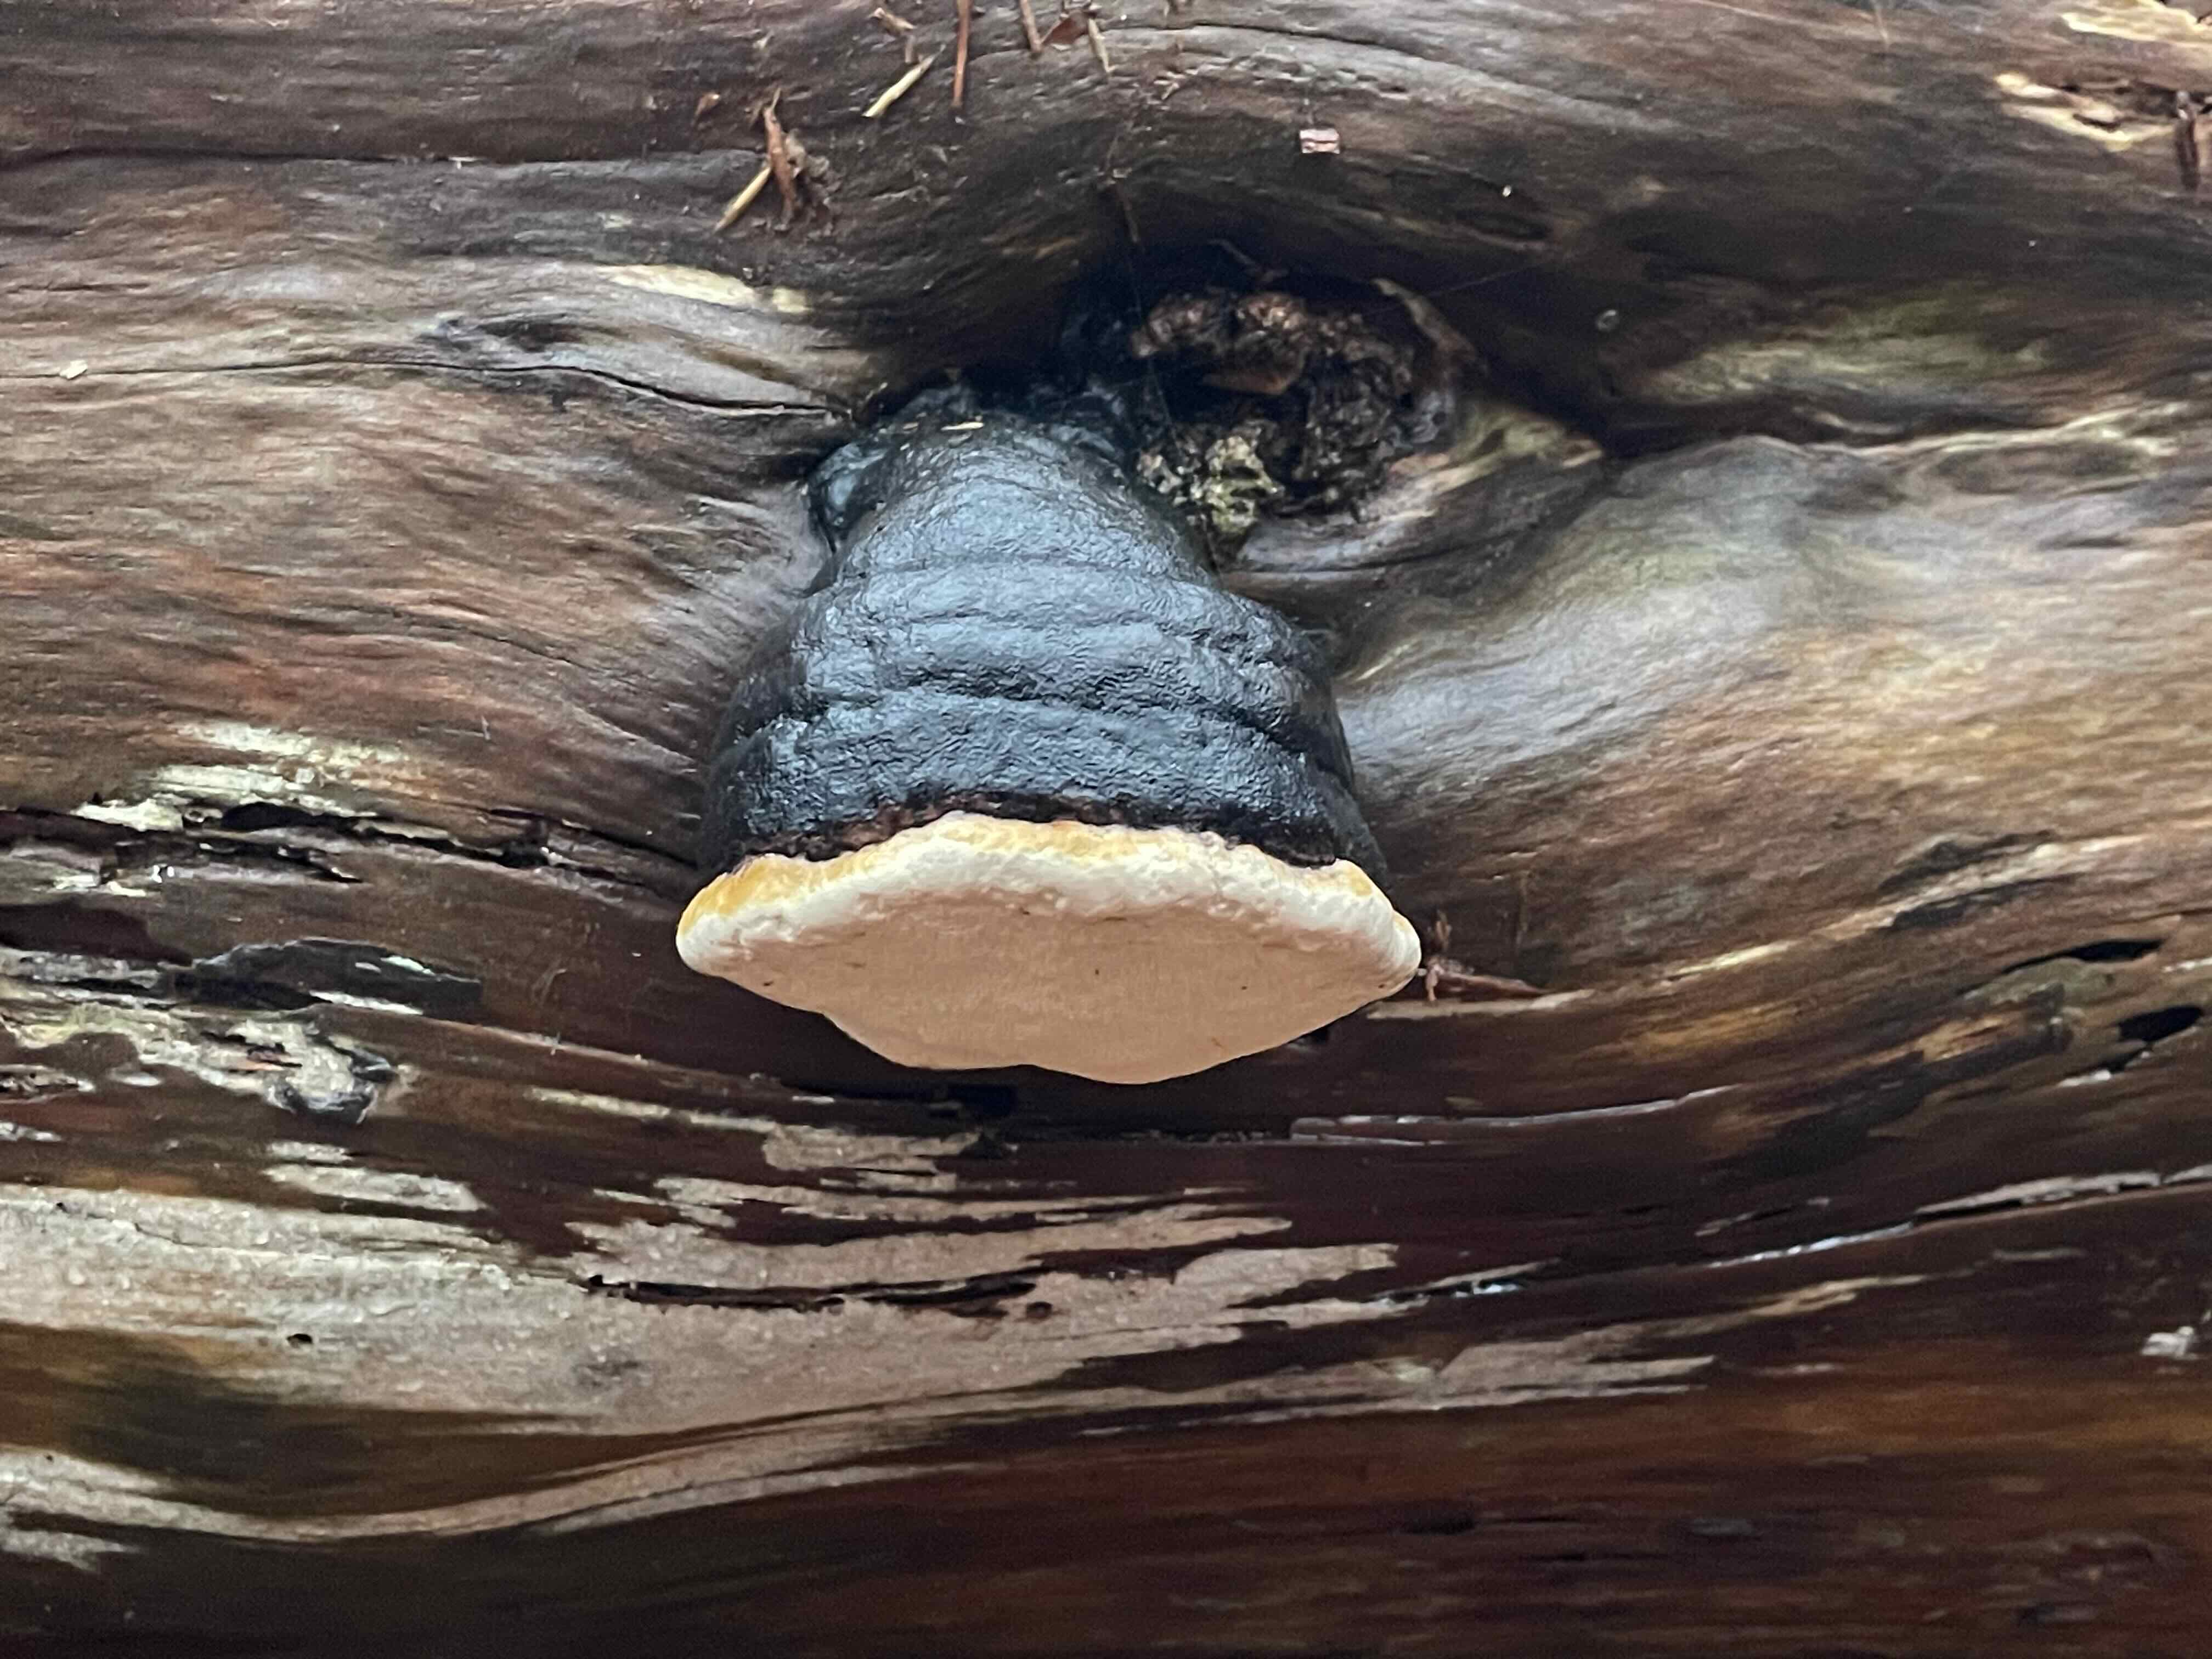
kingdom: Fungi
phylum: Basidiomycota
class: Agaricomycetes
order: Polyporales
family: Fomitopsidaceae
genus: Fomitopsis
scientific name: Fomitopsis pinicola
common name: randbæltet hovporesvamp
